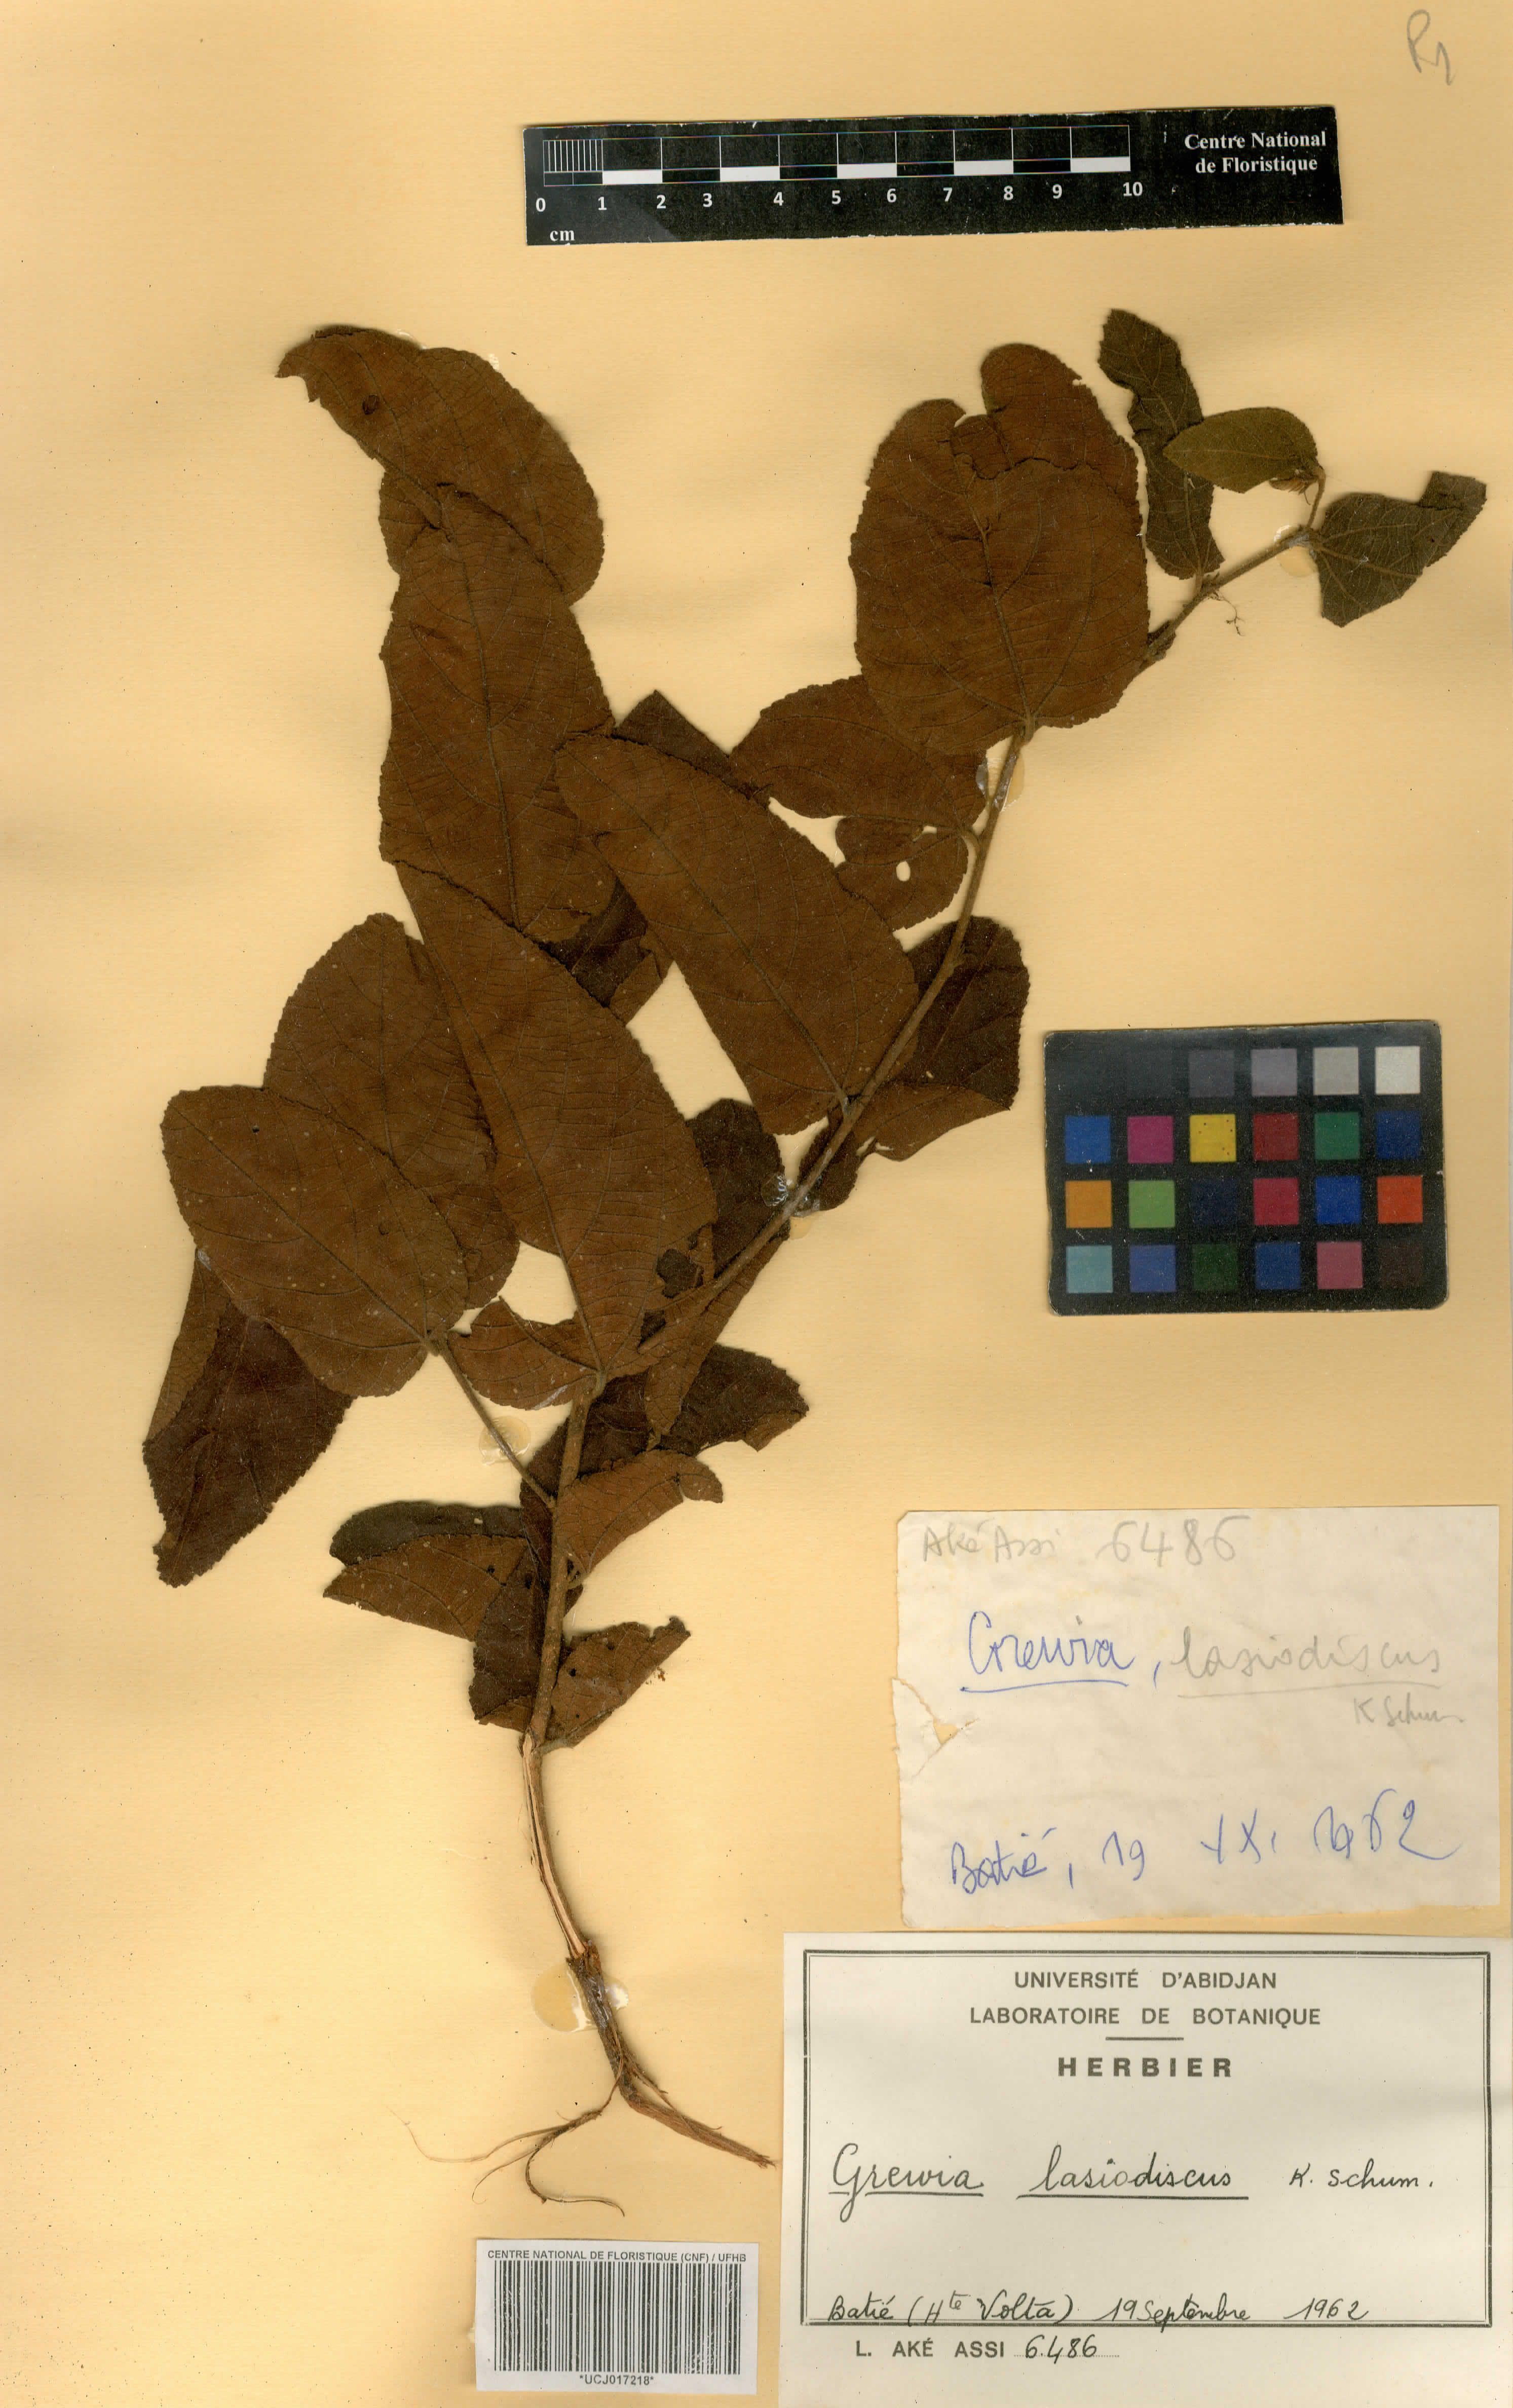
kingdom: Plantae
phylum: Tracheophyta
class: Magnoliopsida
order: Malvales
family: Malvaceae
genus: Grewia
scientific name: Grewia lasiodiscus
